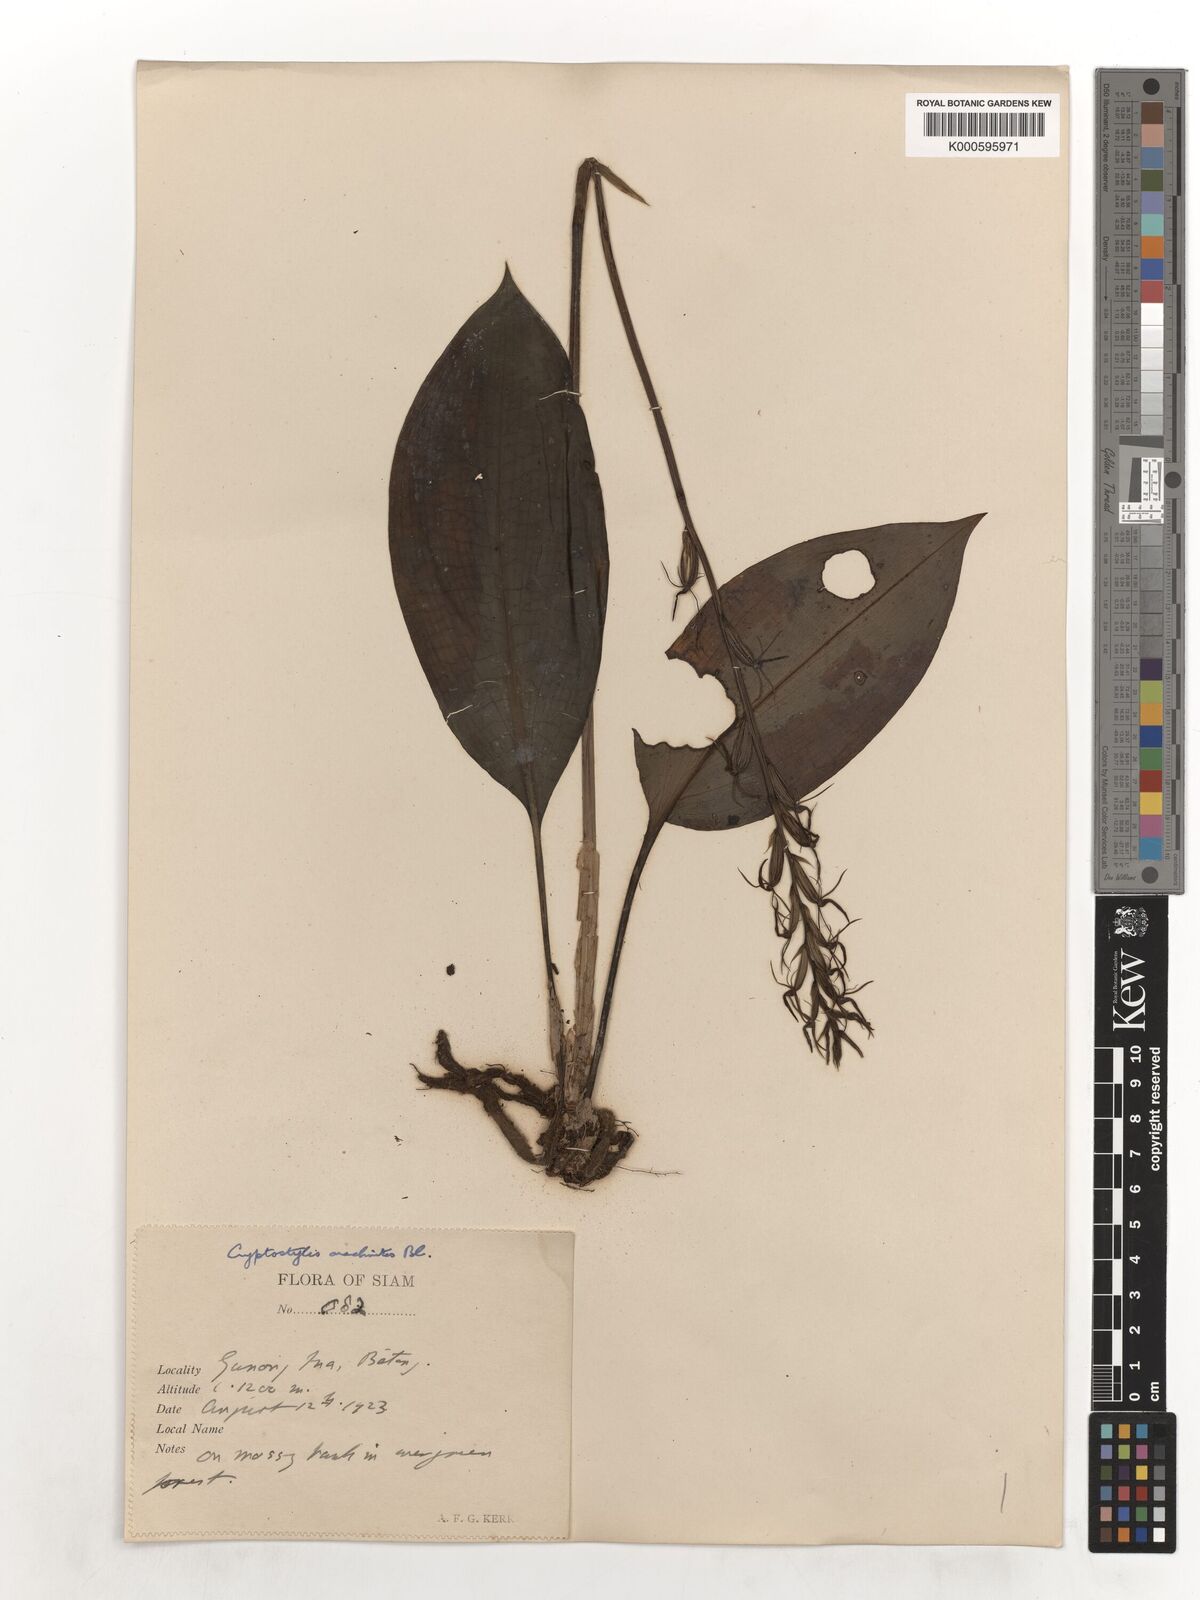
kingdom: Plantae
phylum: Tracheophyta
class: Liliopsida
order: Asparagales
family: Orchidaceae
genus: Cryptostylis
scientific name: Cryptostylis arachnites
